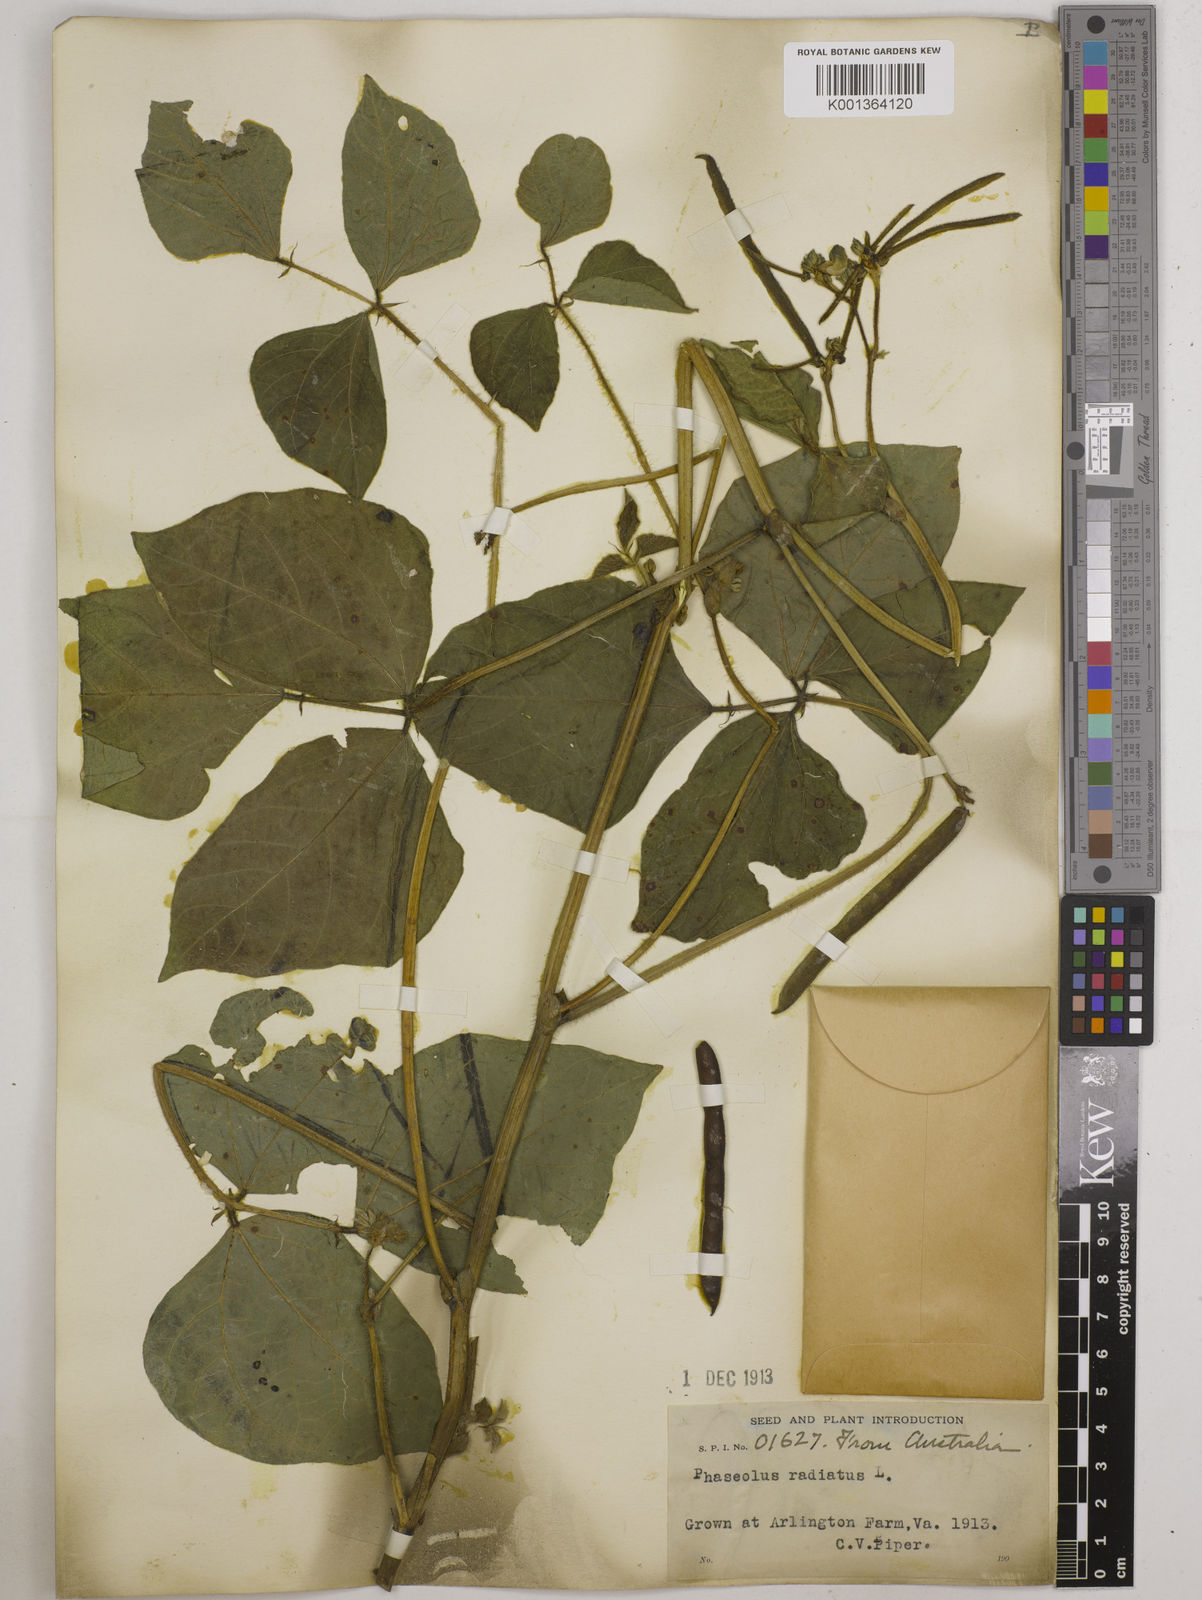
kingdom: Plantae
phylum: Tracheophyta
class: Magnoliopsida
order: Fabales
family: Fabaceae
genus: Vigna
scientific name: Vigna radiata
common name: Mung-bean
